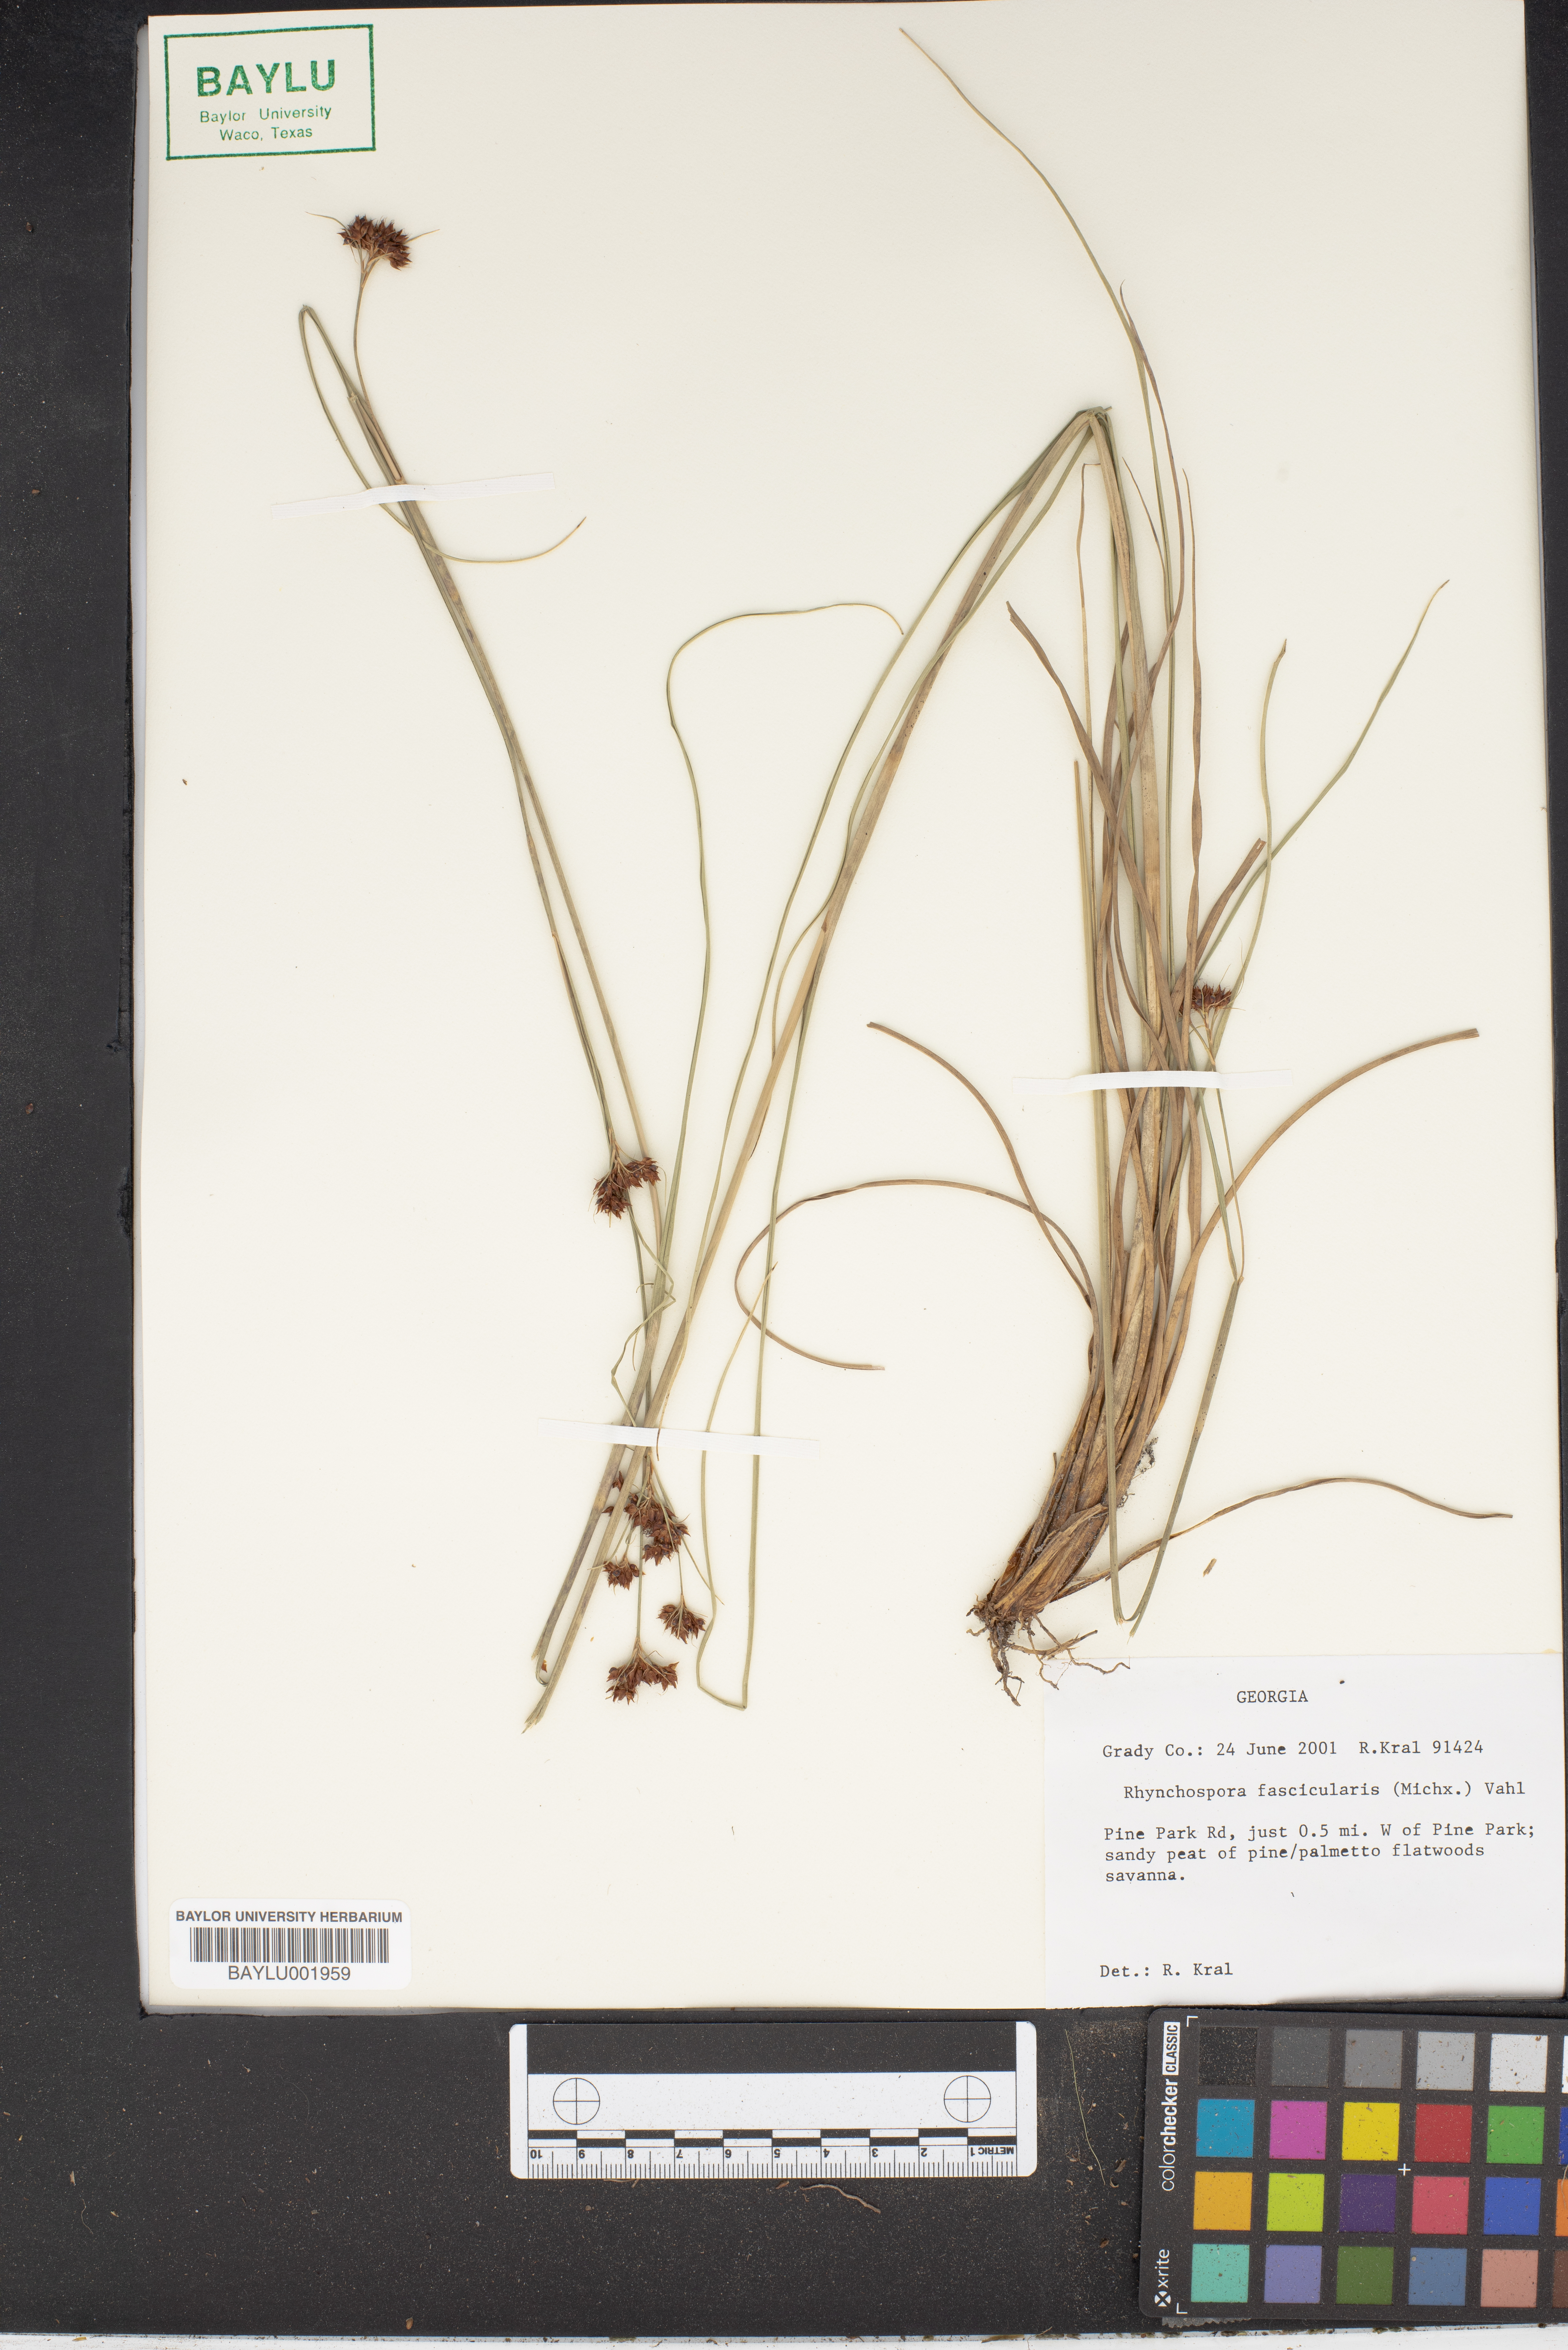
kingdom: Plantae
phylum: Tracheophyta
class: Liliopsida
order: Poales
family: Cyperaceae
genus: Rhynchospora
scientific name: Rhynchospora fascicularis
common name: Fascicled beak sedge
